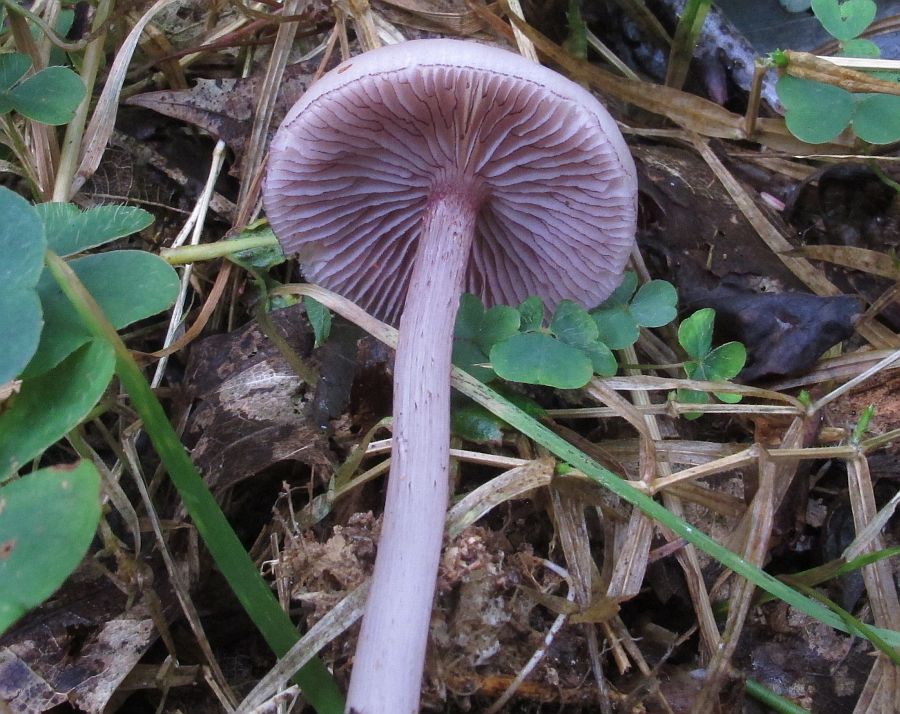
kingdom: Fungi
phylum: Basidiomycota
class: Agaricomycetes
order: Agaricales
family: Mycenaceae
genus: Mycena
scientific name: Mycena pelianthina
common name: mørkbladet huesvamp
